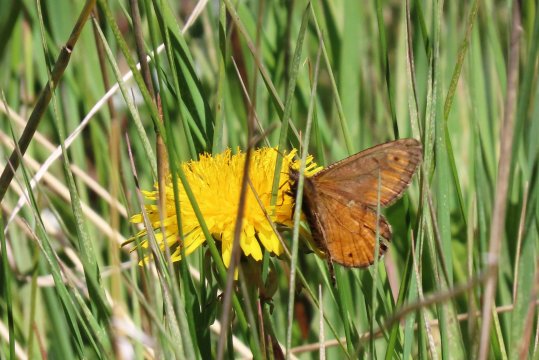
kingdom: Animalia
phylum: Arthropoda
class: Insecta
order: Lepidoptera
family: Nymphalidae
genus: Oeneis
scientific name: Oeneis chryxus
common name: Chryxus Arctic
